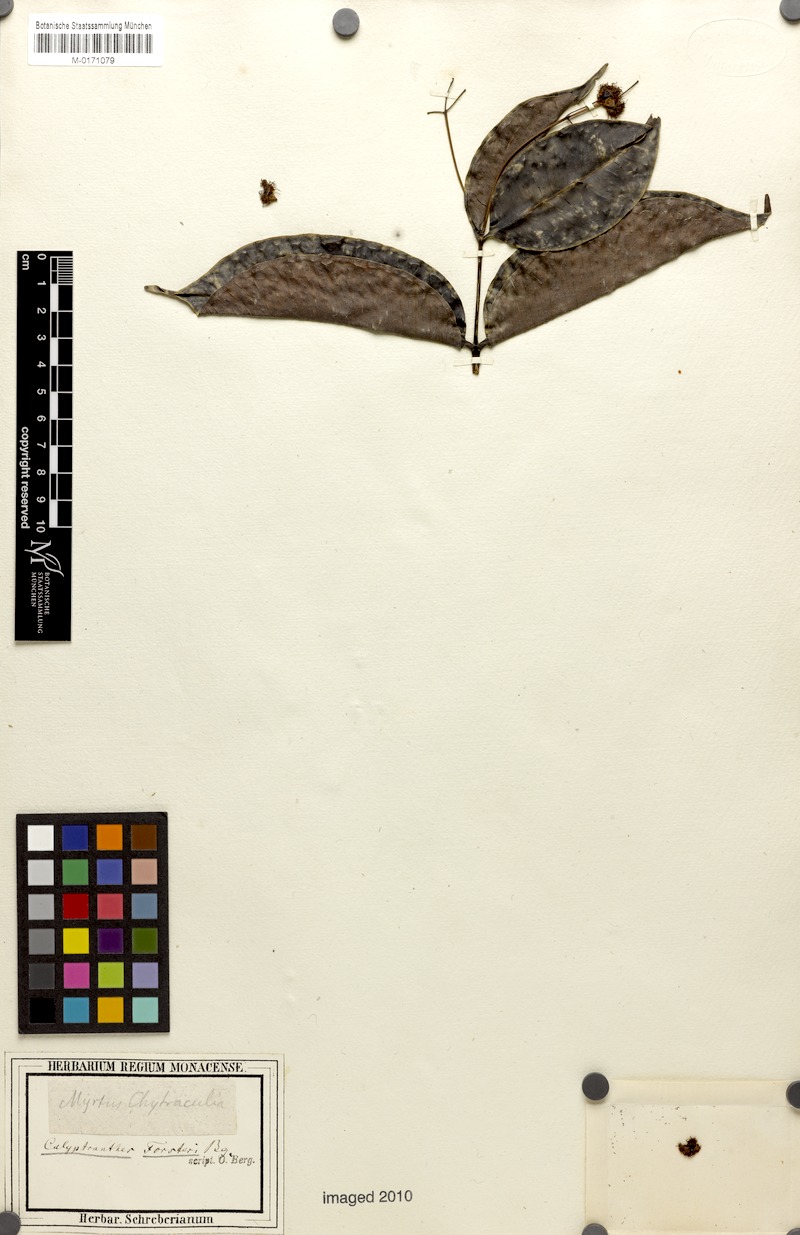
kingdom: Plantae
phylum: Tracheophyta
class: Magnoliopsida
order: Myrtales
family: Myrtaceae
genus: Myrcia
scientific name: Myrcia forsteri
